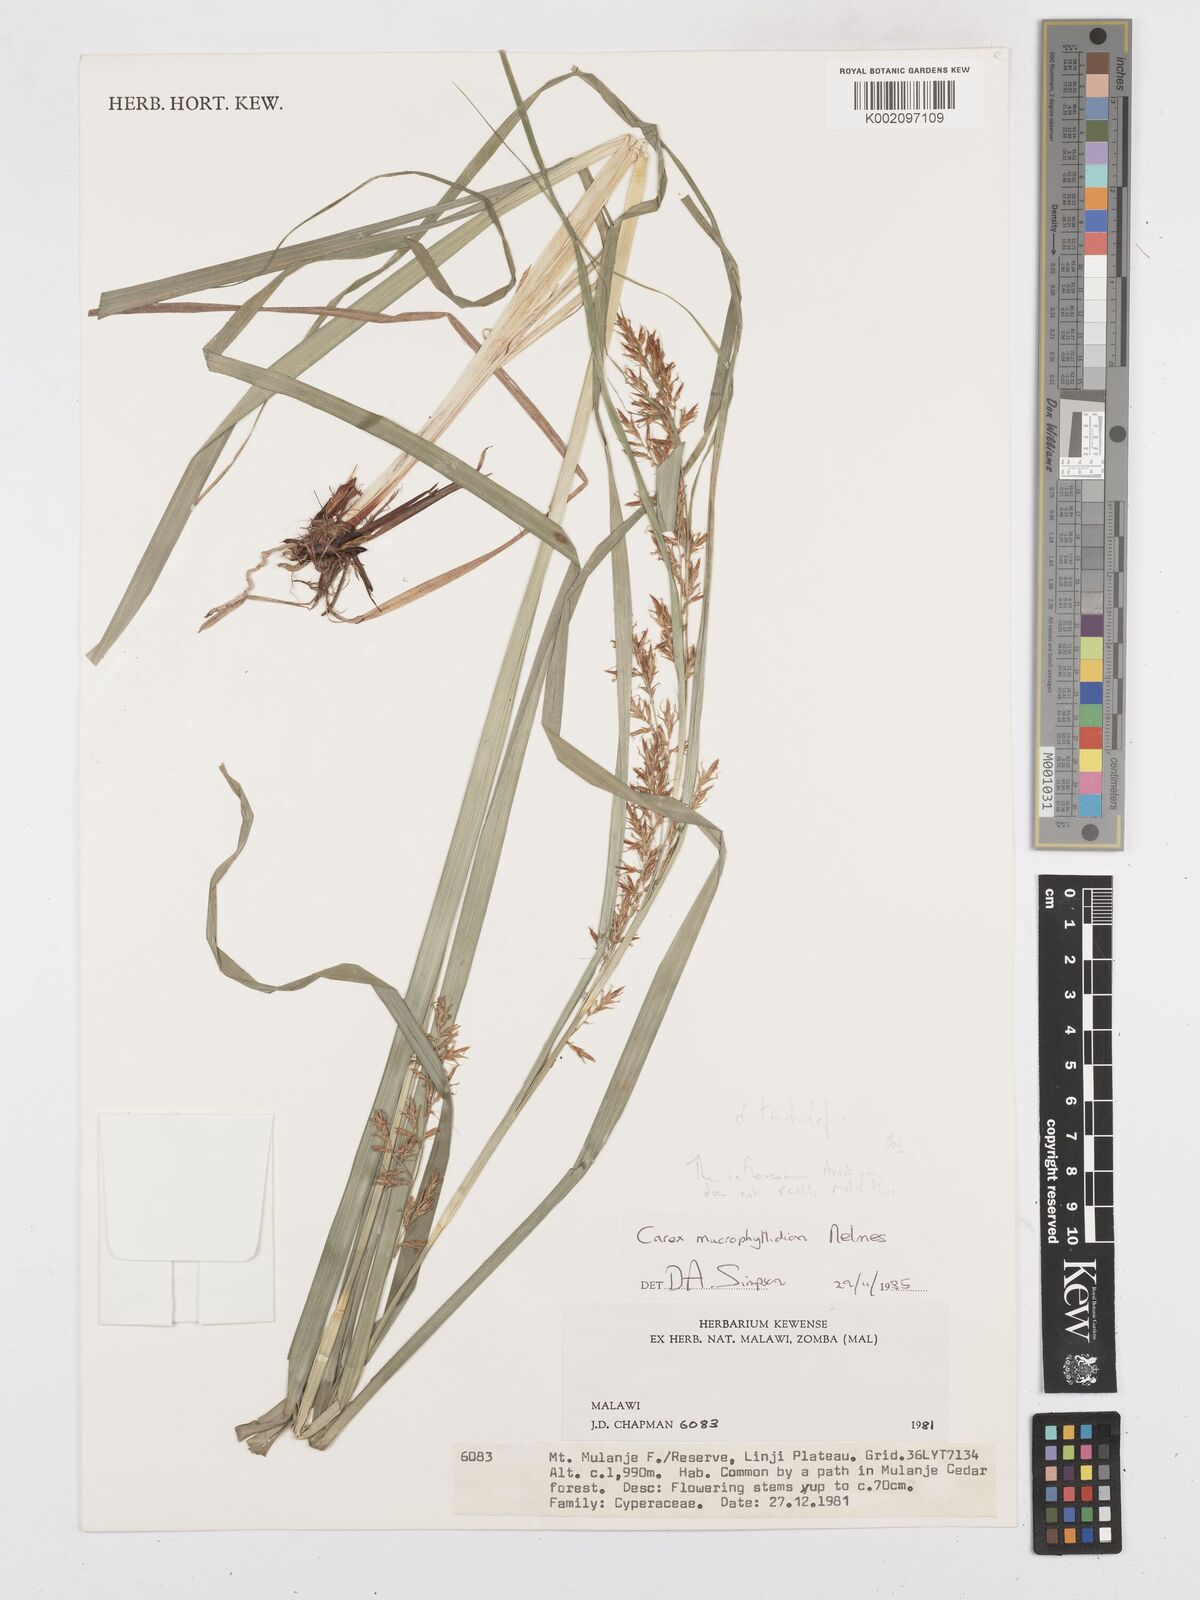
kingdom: Plantae
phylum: Tracheophyta
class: Liliopsida
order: Poales
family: Cyperaceae
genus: Carex
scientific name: Carex tricholepis
